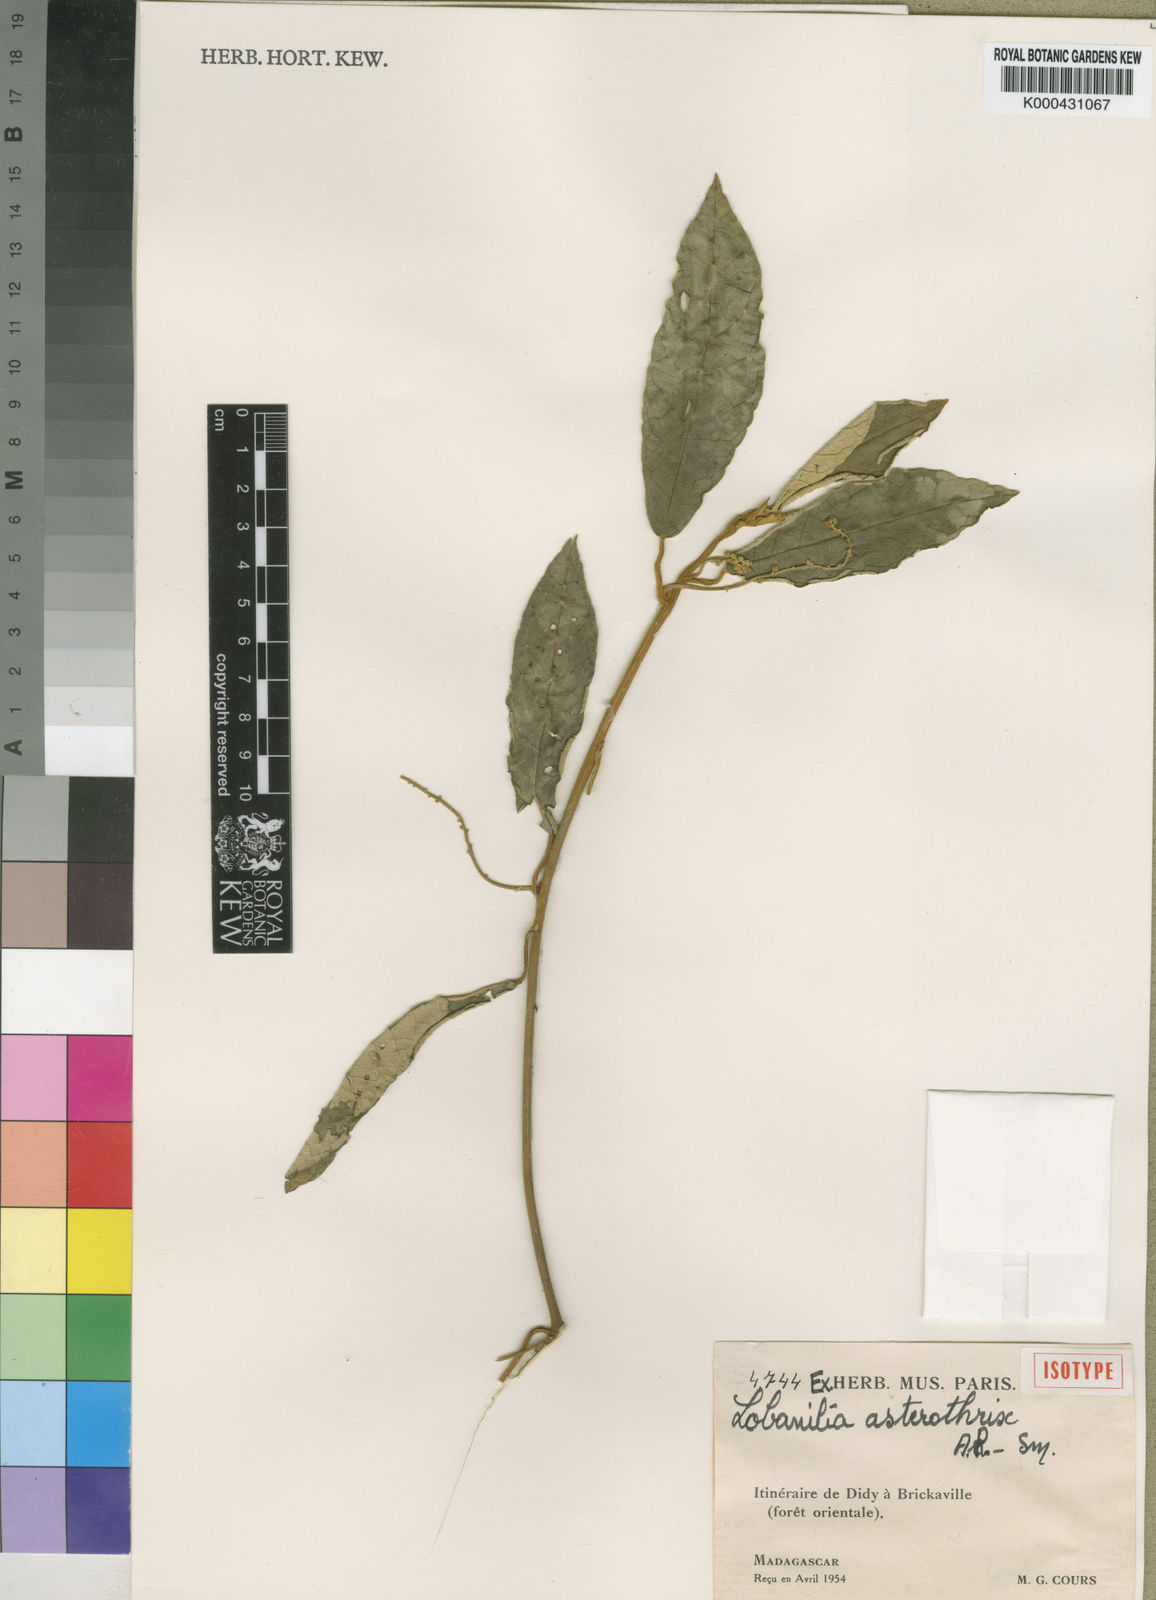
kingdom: Plantae
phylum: Tracheophyta
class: Magnoliopsida
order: Malpighiales
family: Euphorbiaceae
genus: Lobanilia
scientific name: Lobanilia asterothrix
